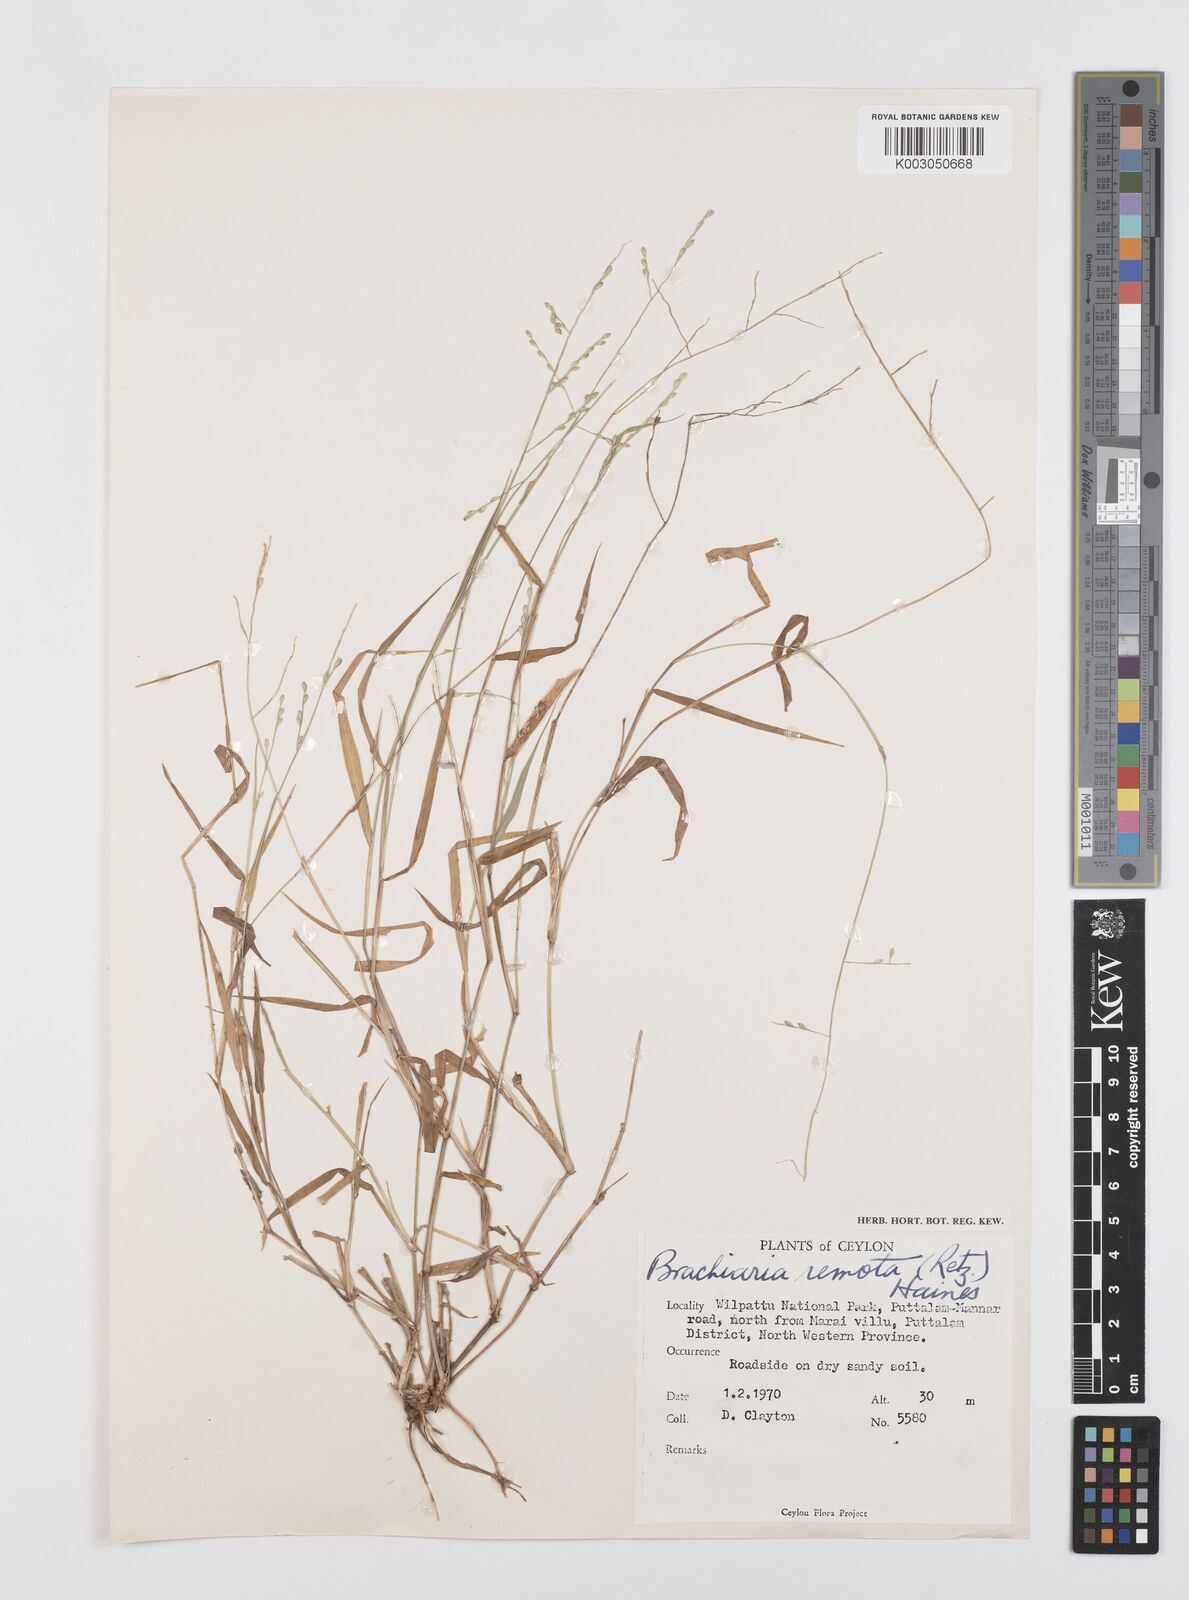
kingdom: Plantae
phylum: Tracheophyta
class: Liliopsida
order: Poales
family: Poaceae
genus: Urochloa
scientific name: Urochloa Brachiaria remota
